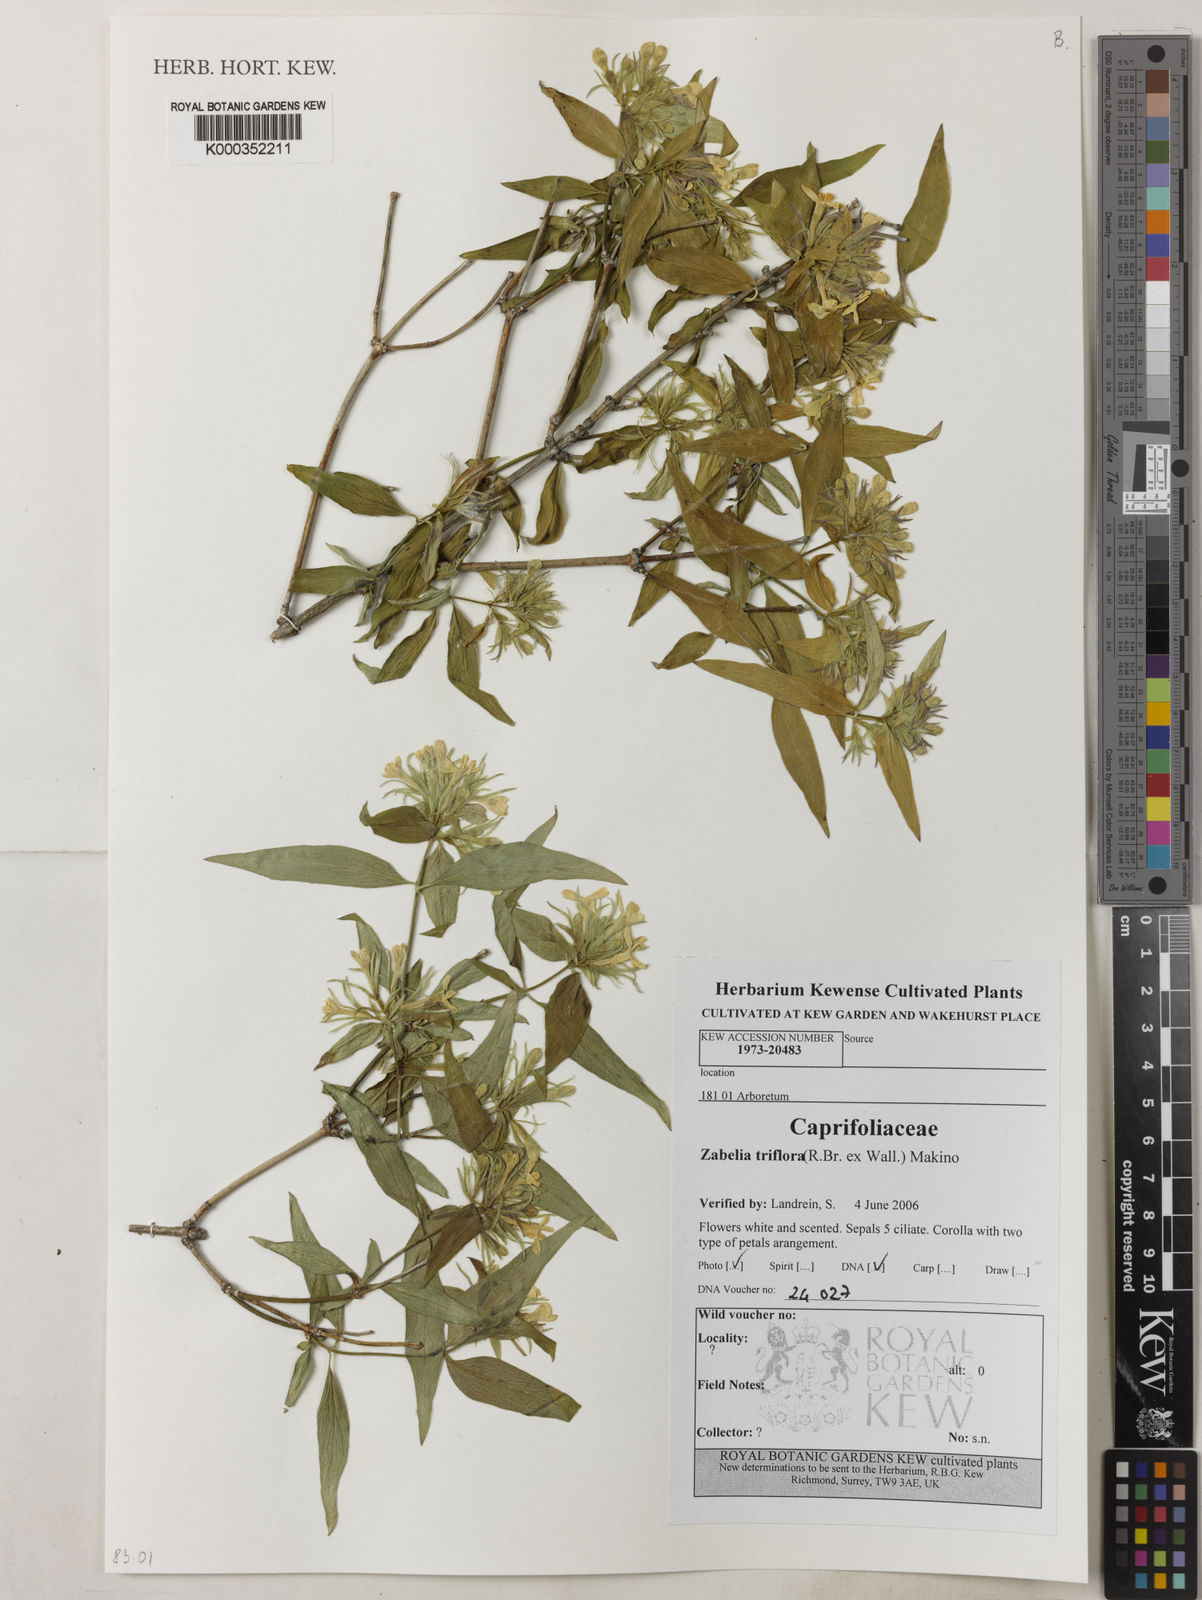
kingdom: Plantae
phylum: Tracheophyta
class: Magnoliopsida
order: Dipsacales
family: Caprifoliaceae
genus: Zabelia
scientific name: Zabelia triflora
